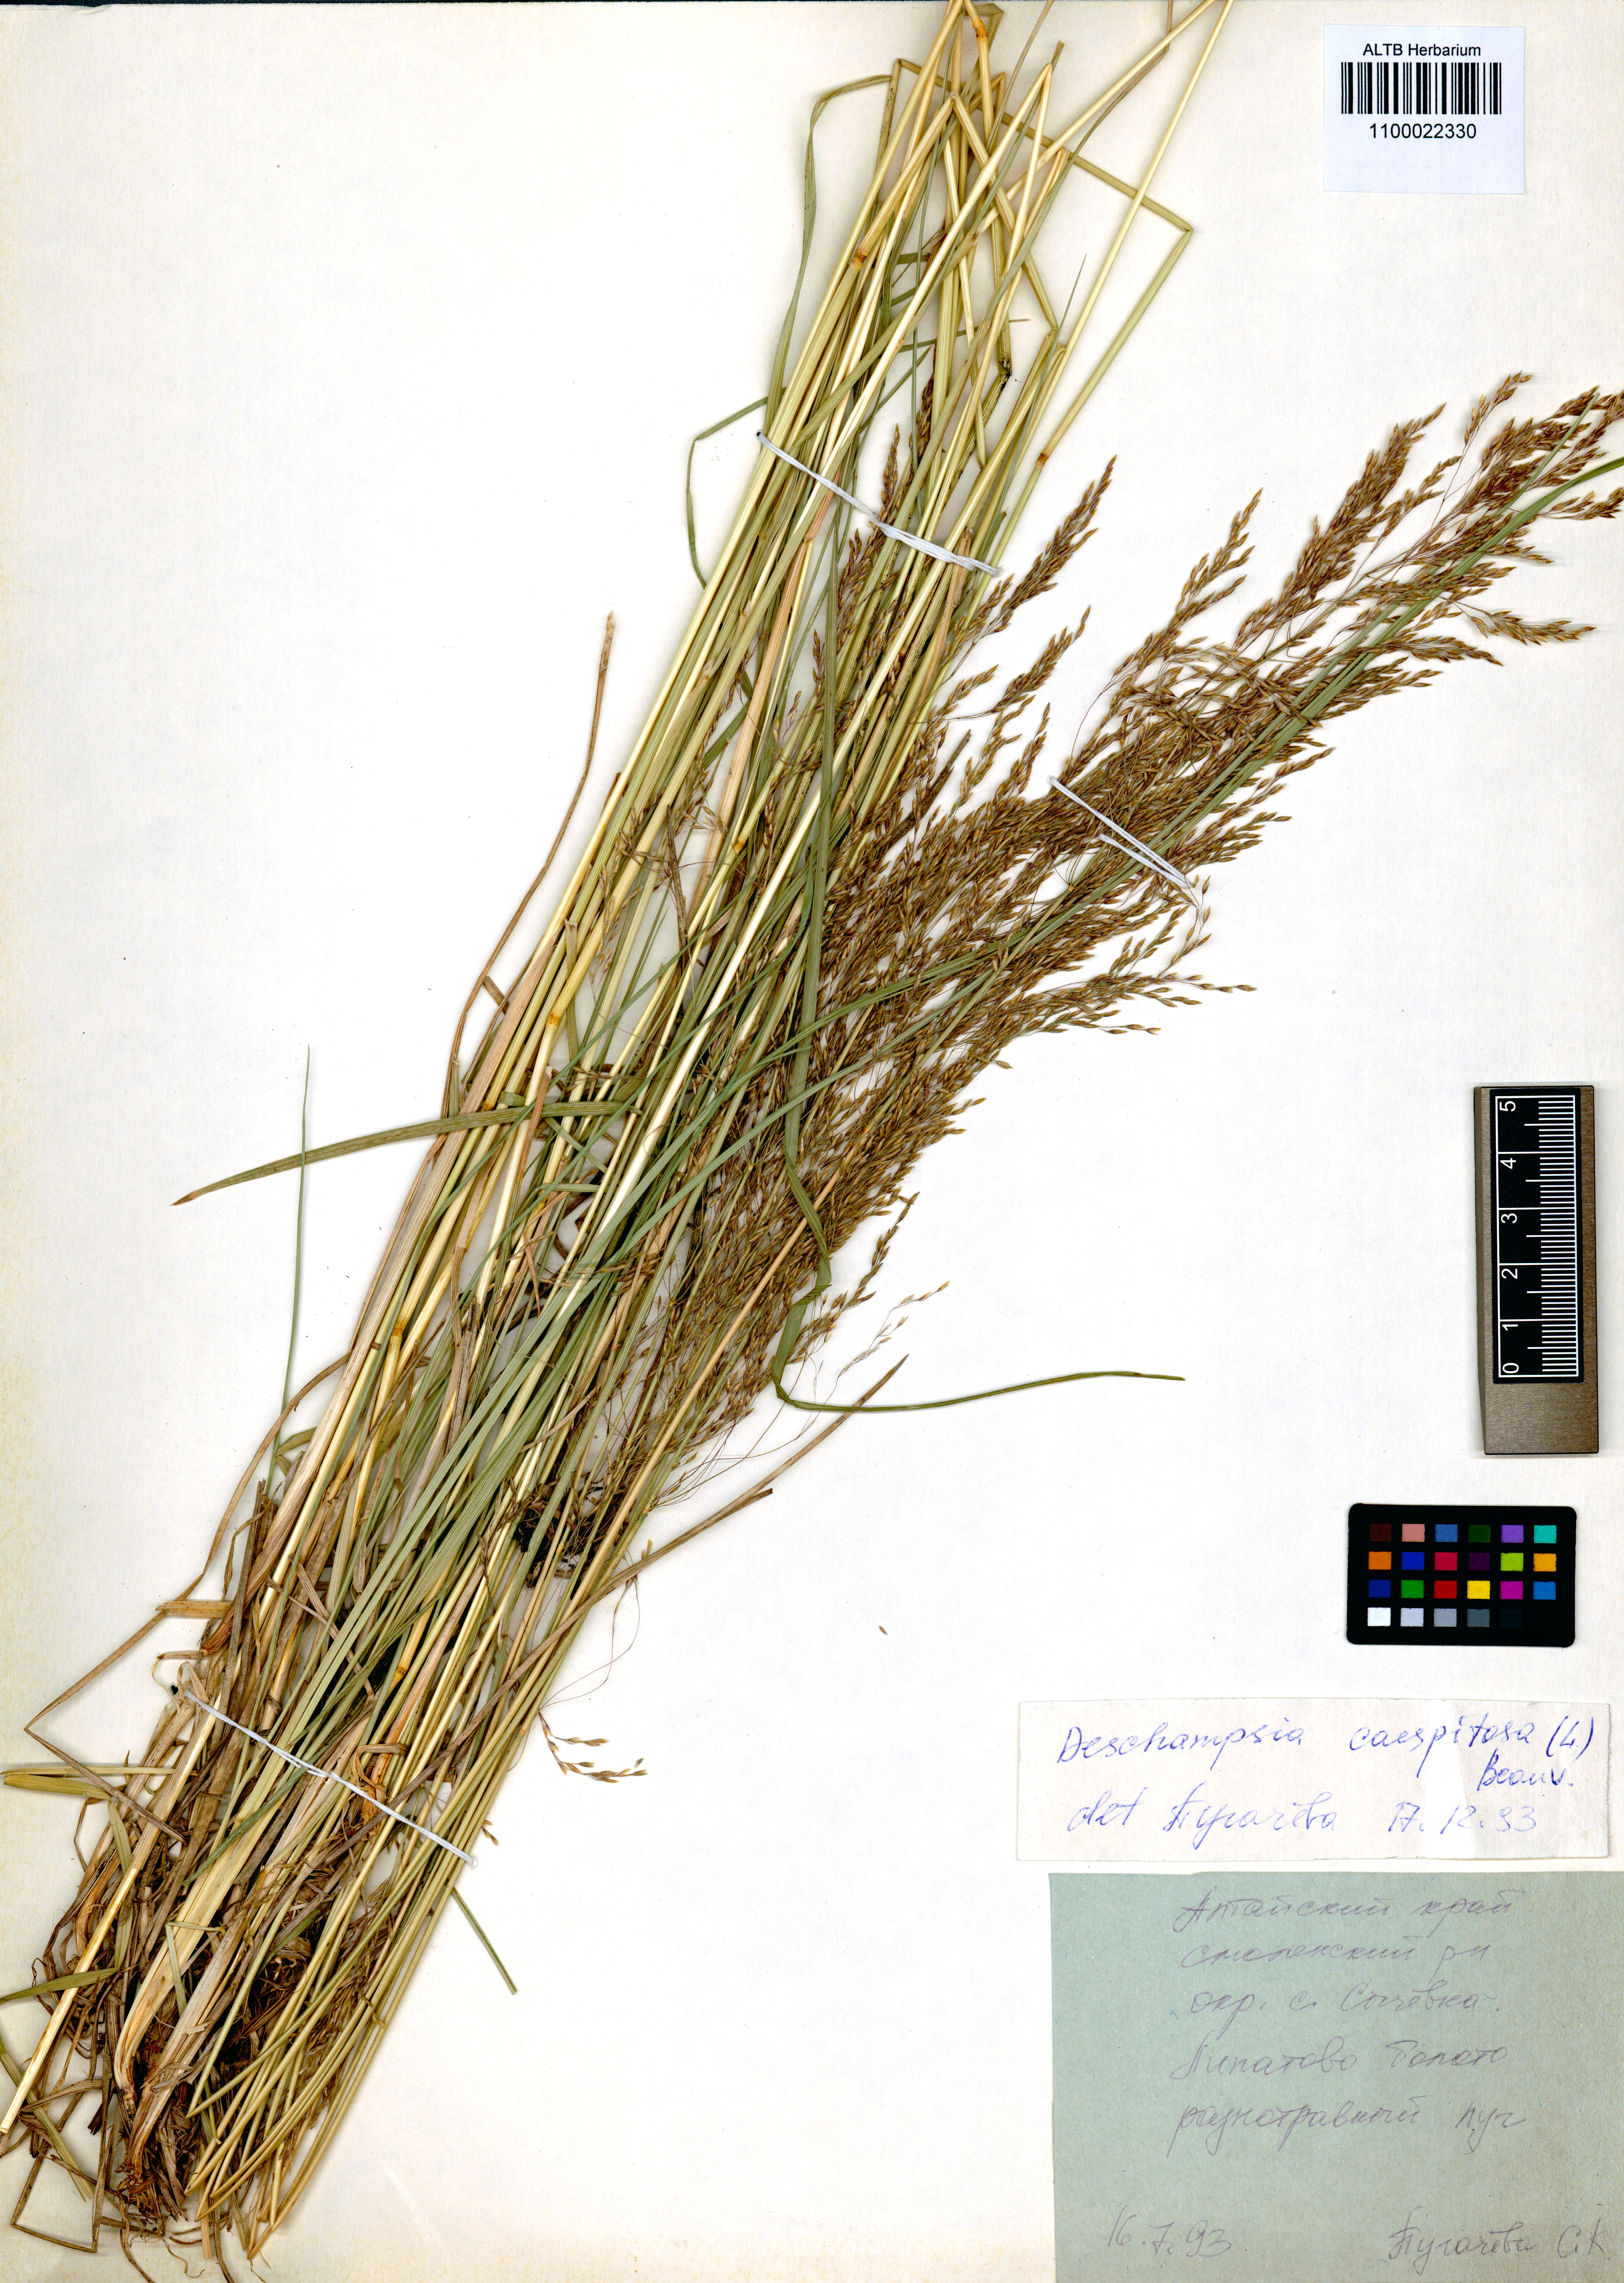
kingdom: Plantae
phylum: Tracheophyta
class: Liliopsida
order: Poales
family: Poaceae
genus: Deschampsia
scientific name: Deschampsia cespitosa
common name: Tufted hair-grass
